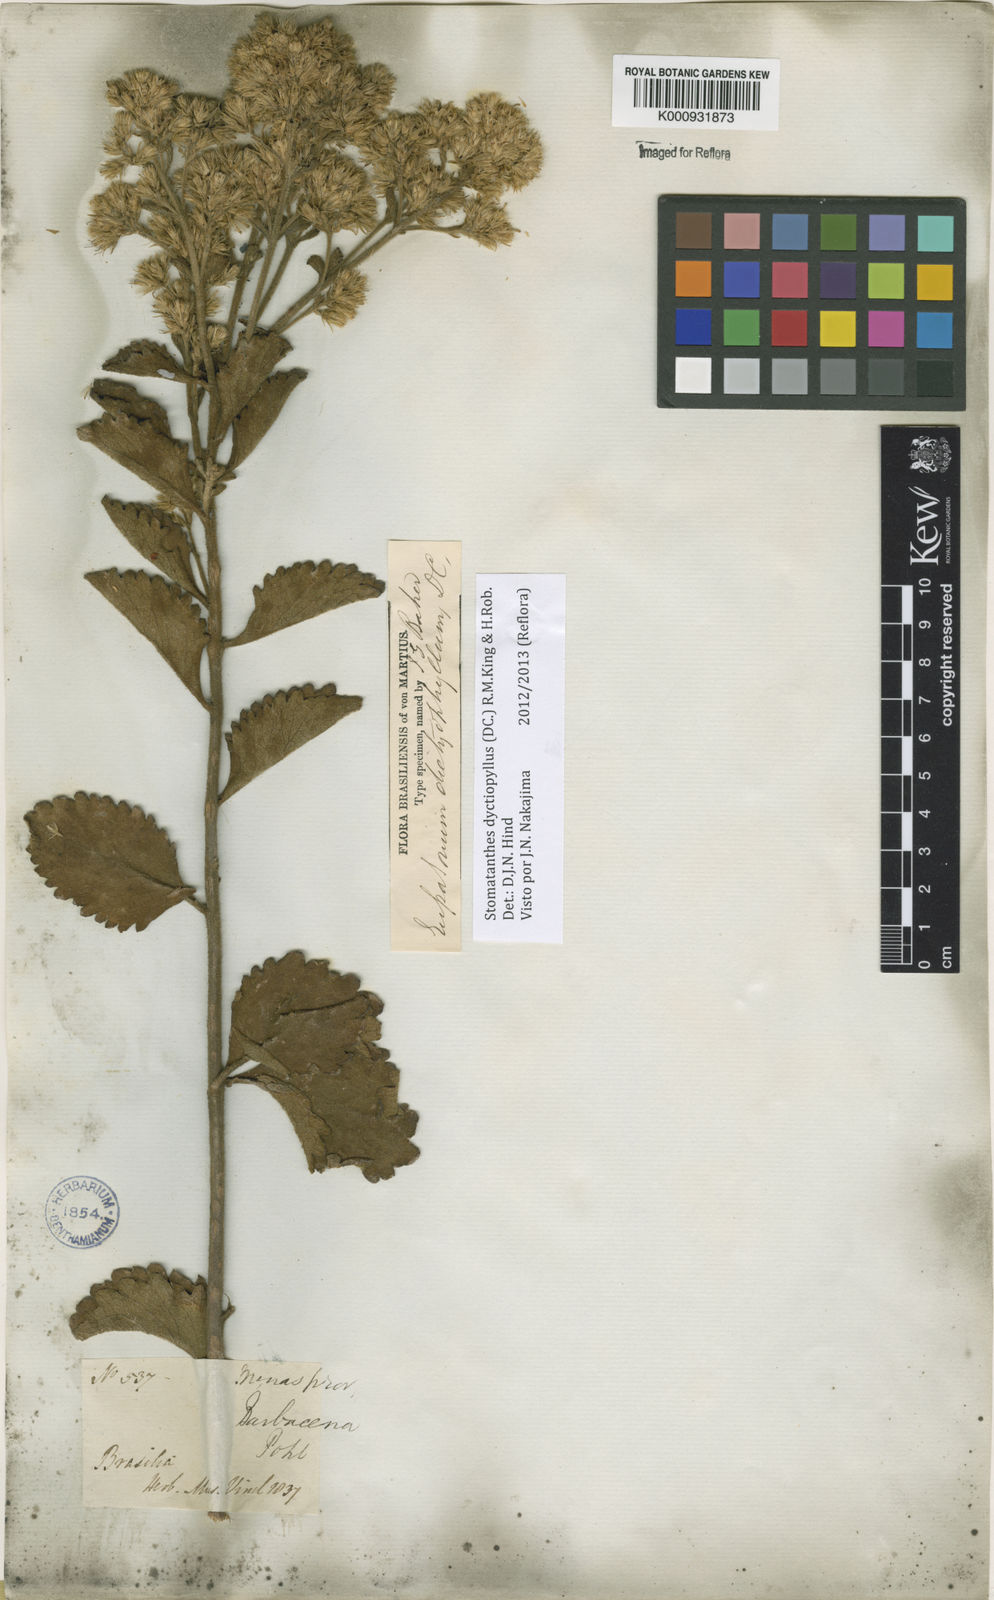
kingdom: Plantae
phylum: Tracheophyta
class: Magnoliopsida
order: Asterales
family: Asteraceae
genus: Stomatanthes
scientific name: Stomatanthes dictyophyllus
